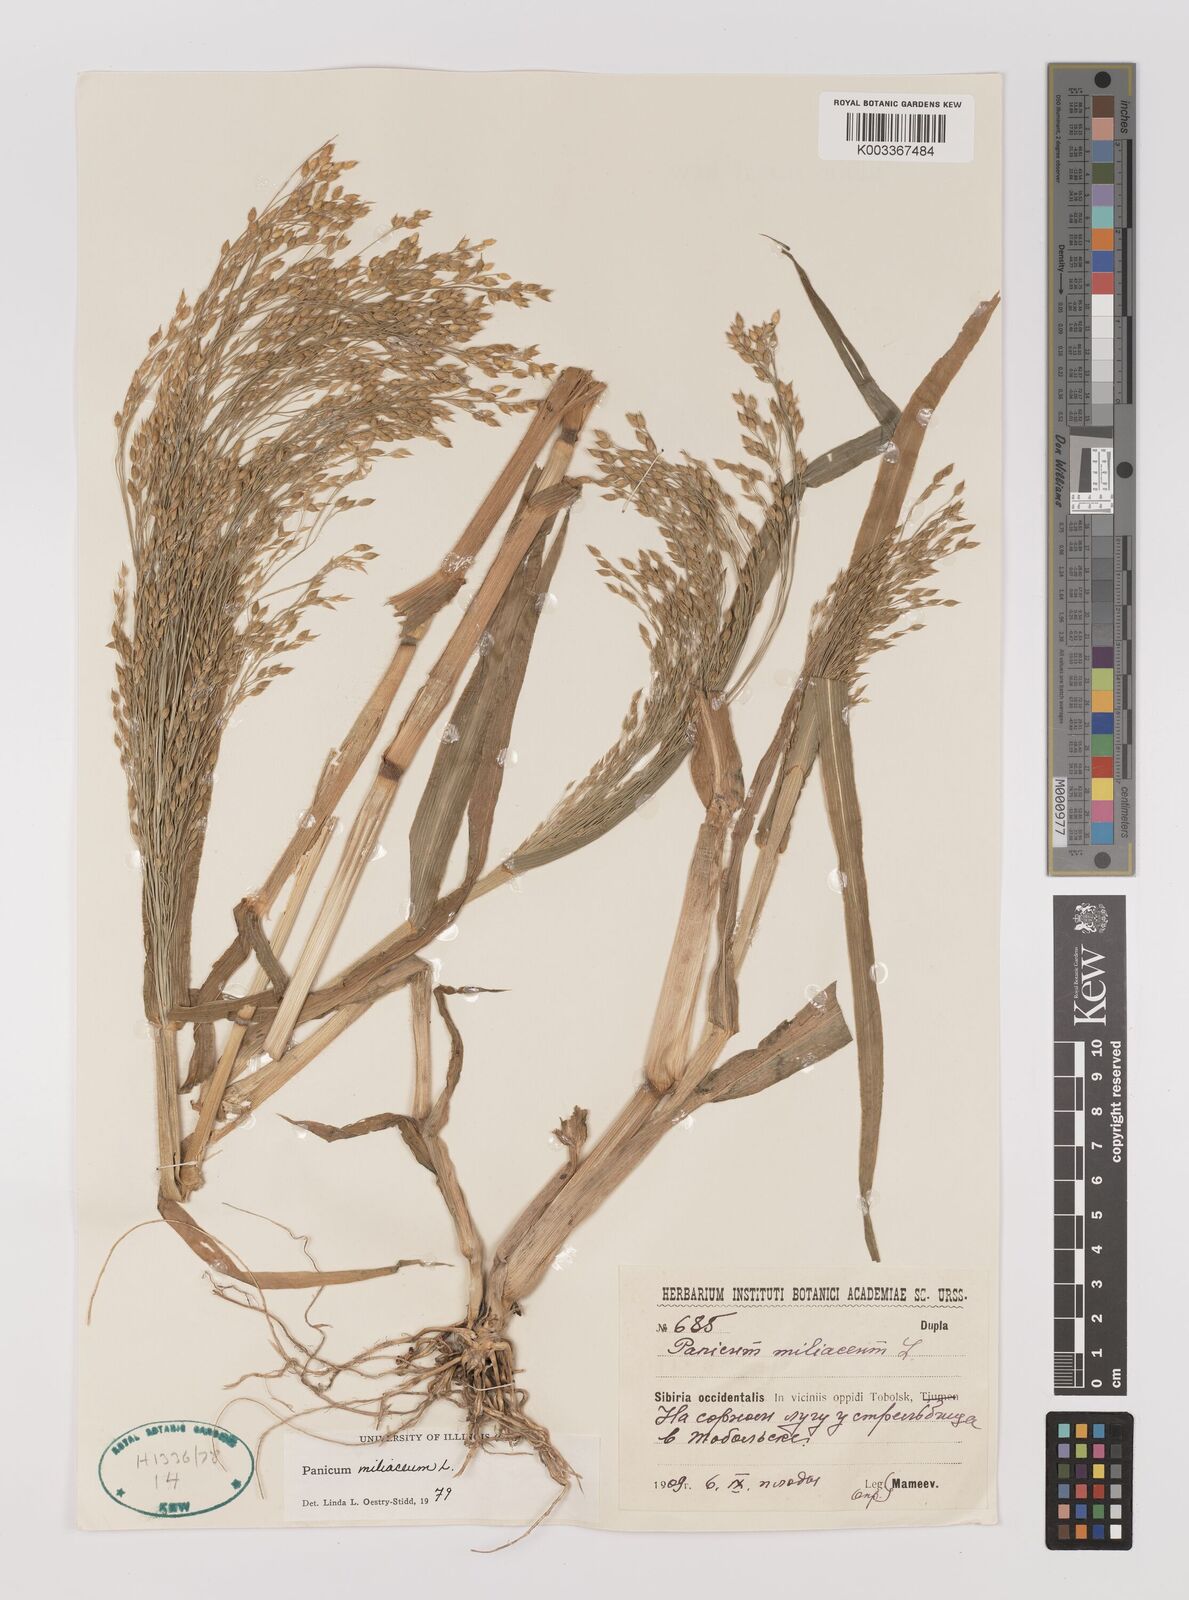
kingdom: Plantae
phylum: Tracheophyta
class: Liliopsida
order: Poales
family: Poaceae
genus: Panicum
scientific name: Panicum miliaceum
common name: Common millet
